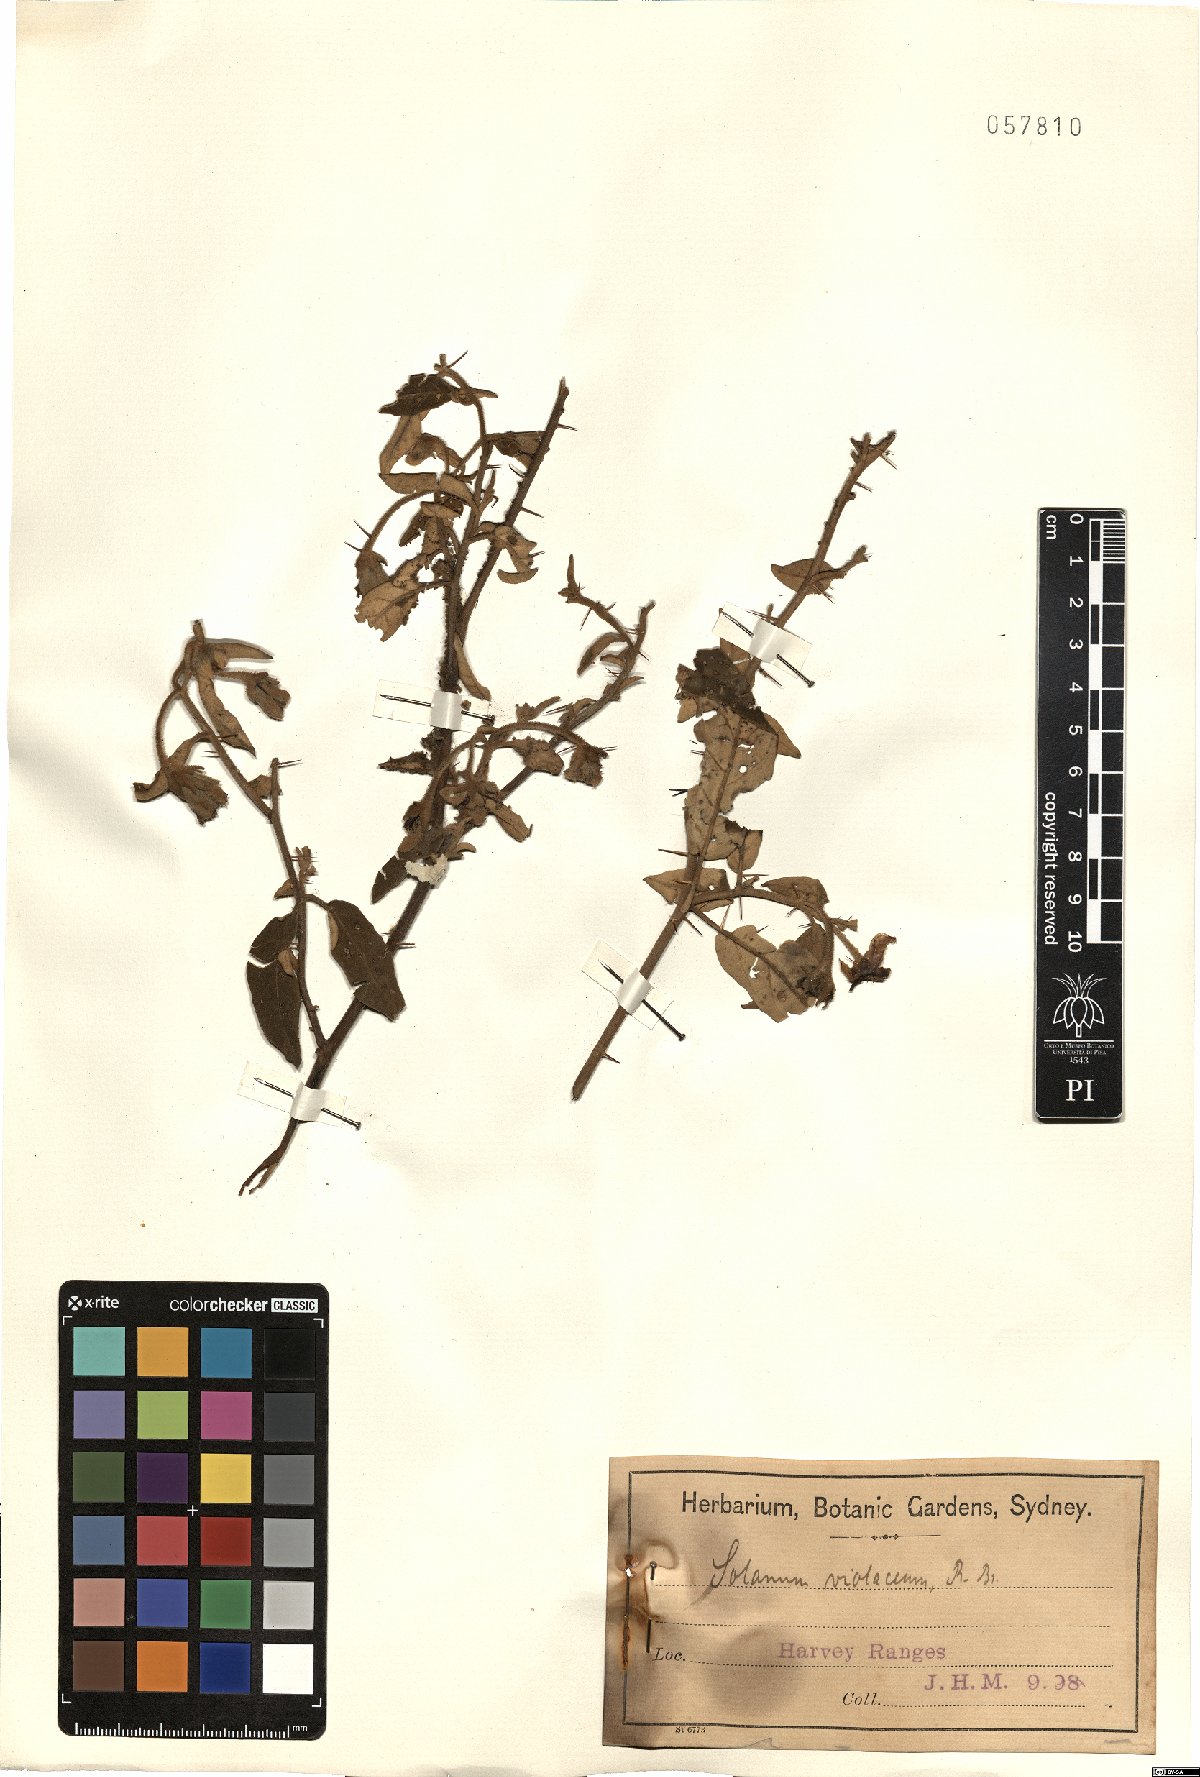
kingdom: Plantae
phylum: Tracheophyta
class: Magnoliopsida
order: Solanales
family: Solanaceae
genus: Solanum
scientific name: Solanum violaceum
